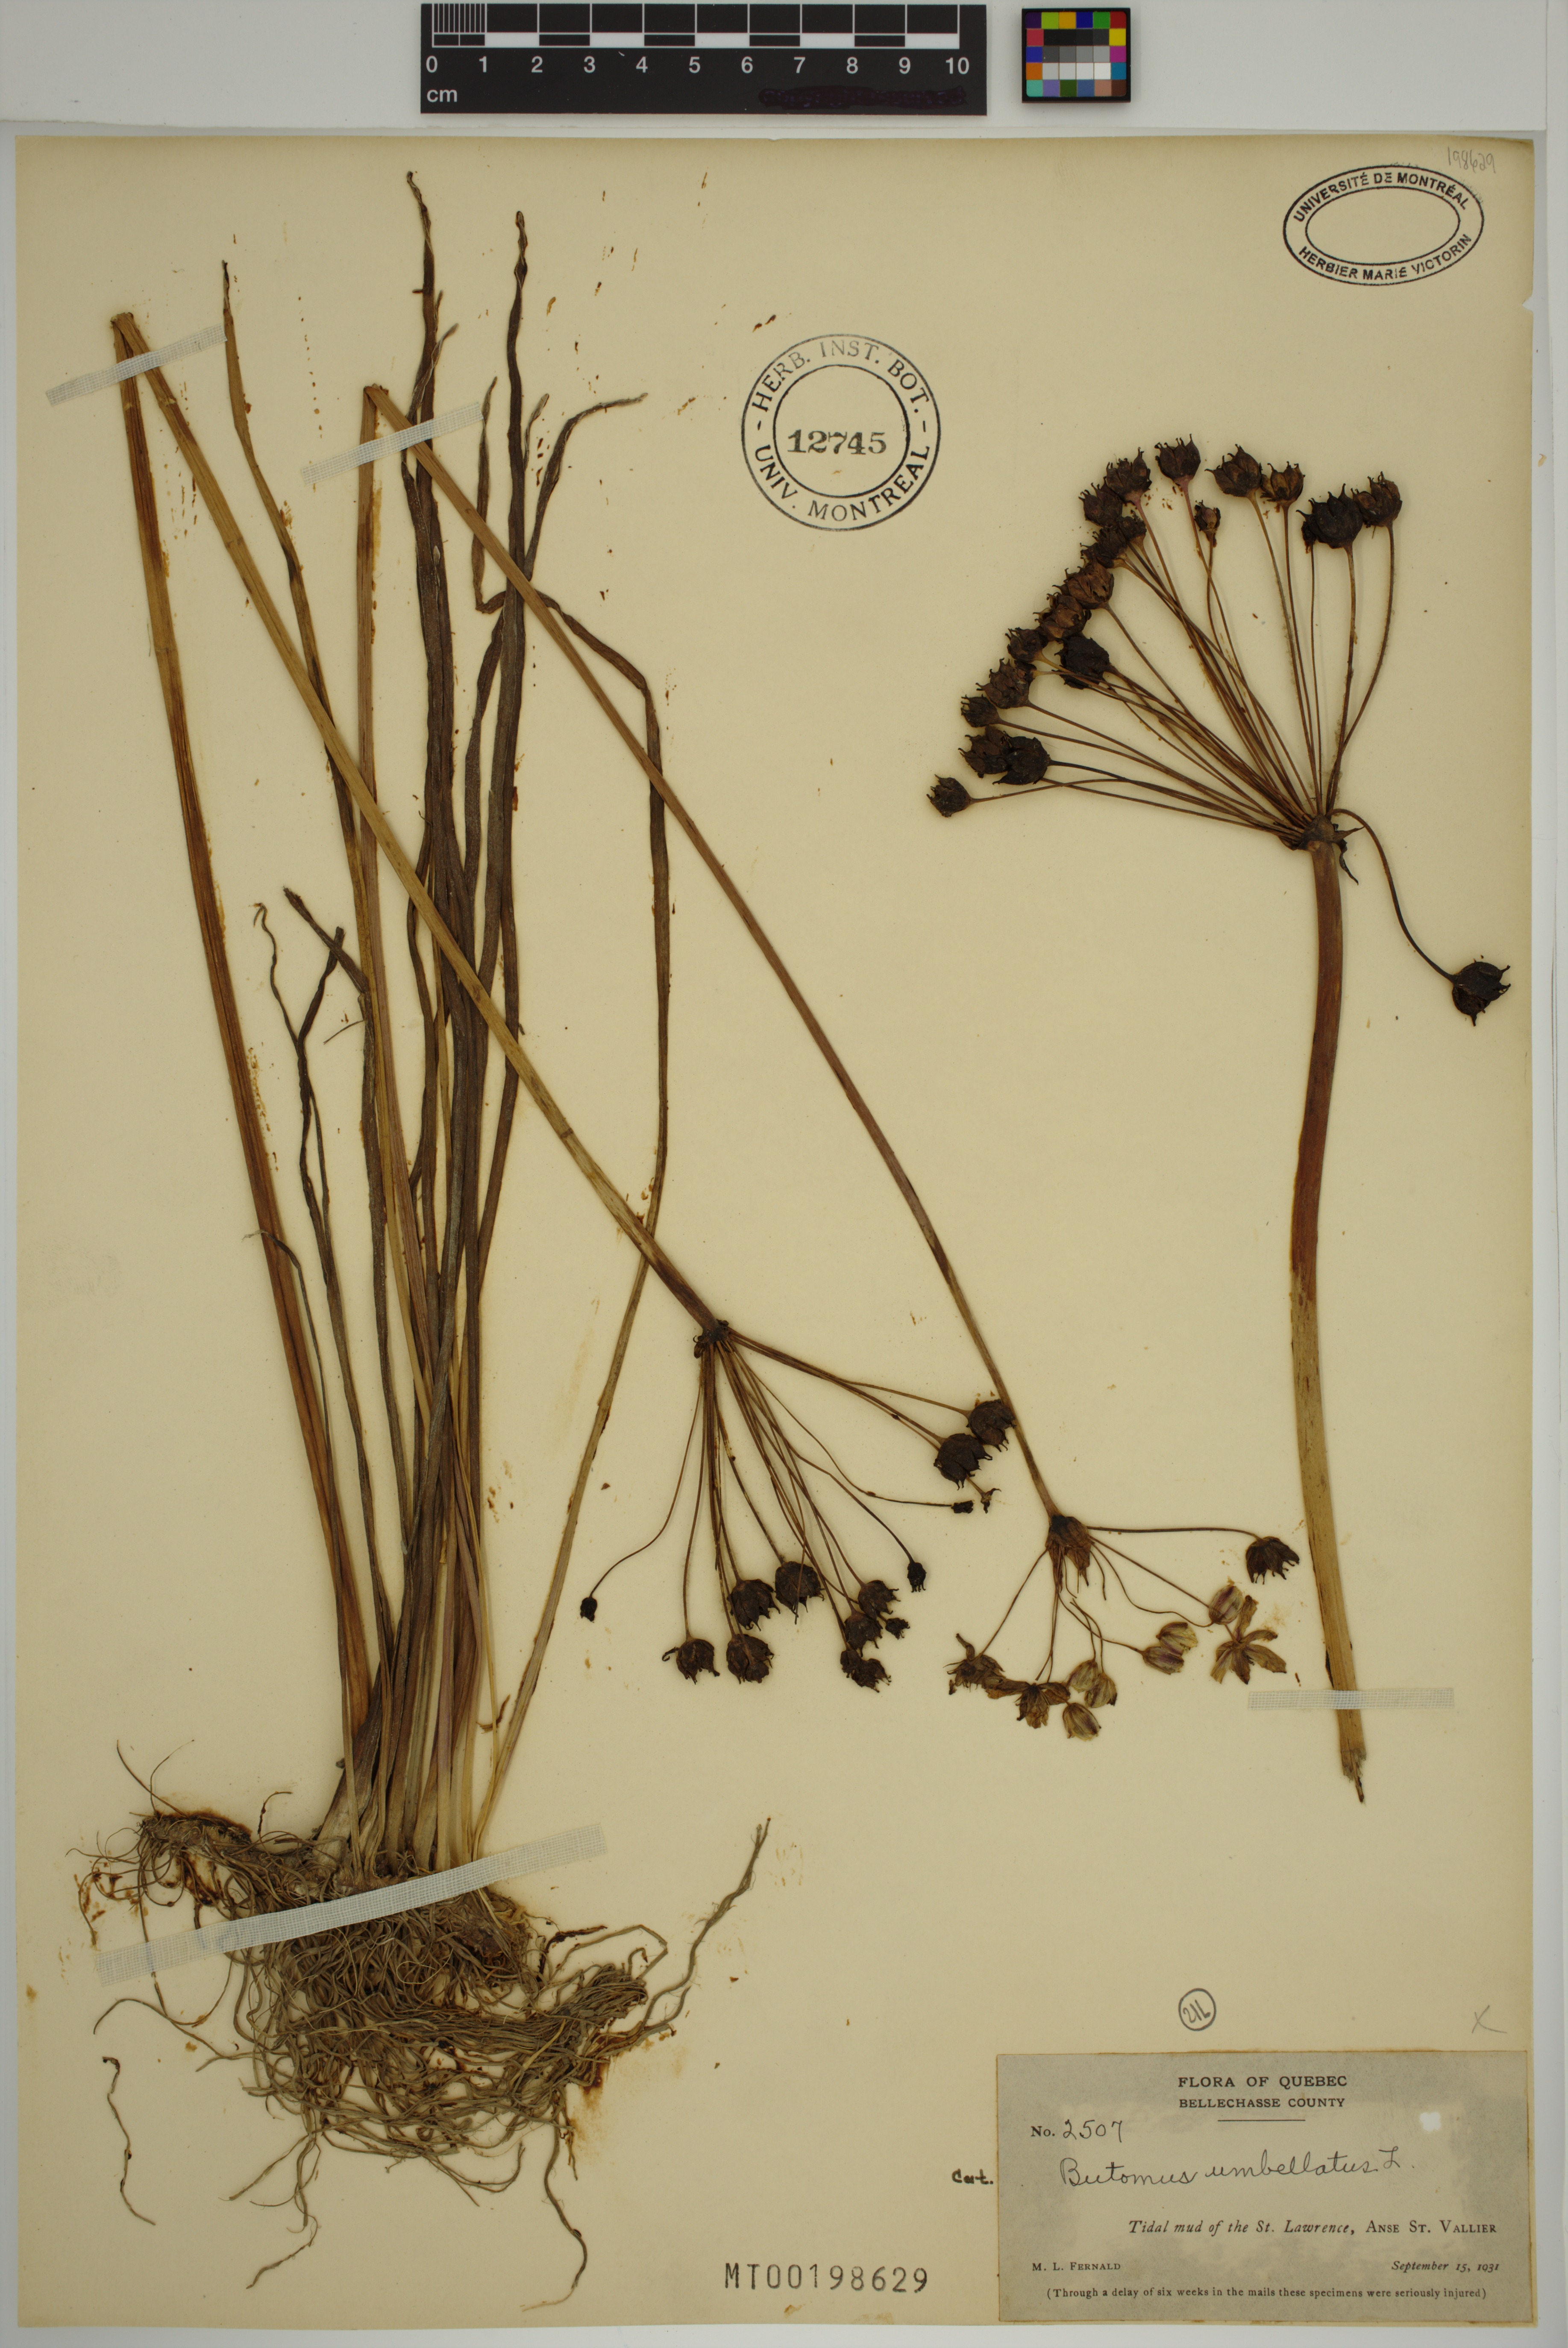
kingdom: Plantae
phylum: Tracheophyta
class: Liliopsida
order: Alismatales
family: Butomaceae
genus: Butomus
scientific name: Butomus umbellatus
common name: Flowering-rush
